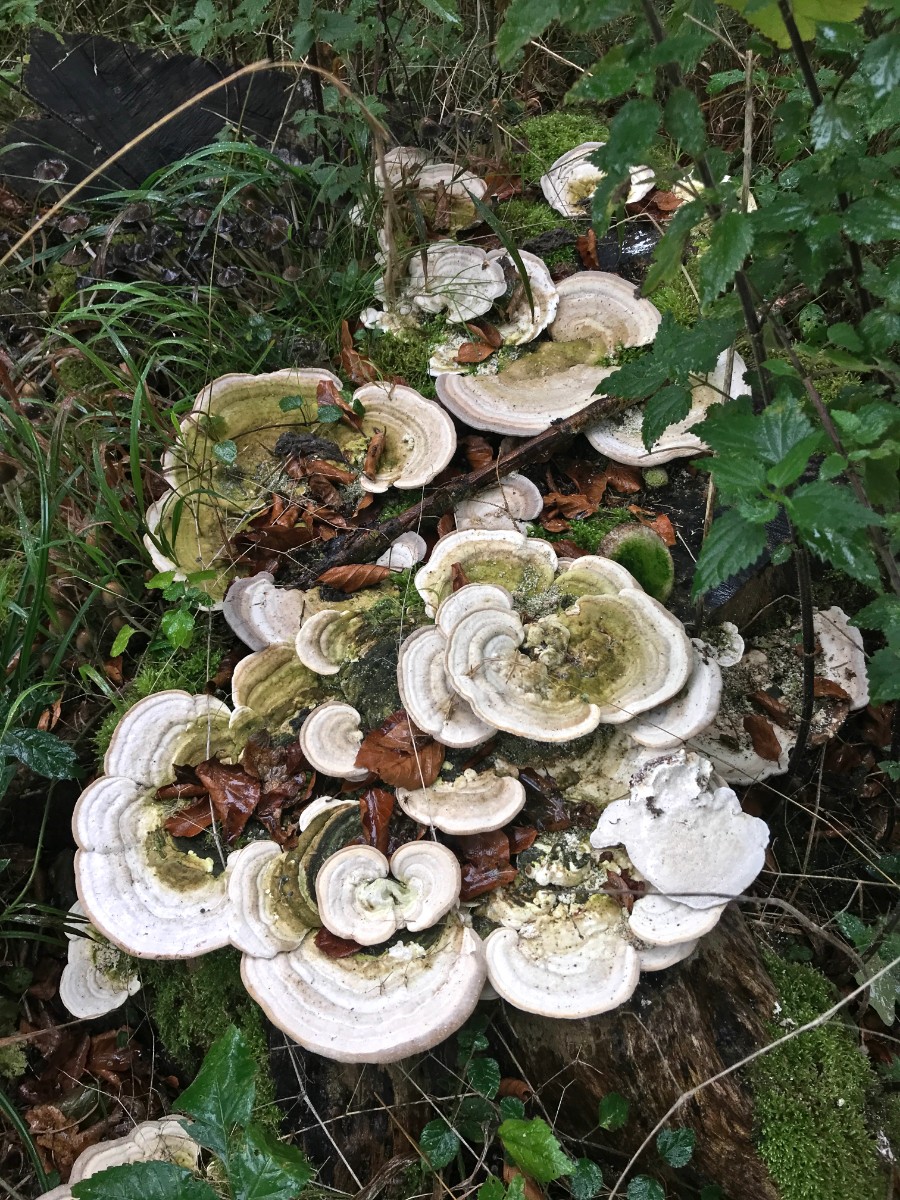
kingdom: Fungi
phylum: Basidiomycota
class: Agaricomycetes
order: Polyporales
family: Polyporaceae
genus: Trametes
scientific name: Trametes hirsuta
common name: håret læderporesvamp
